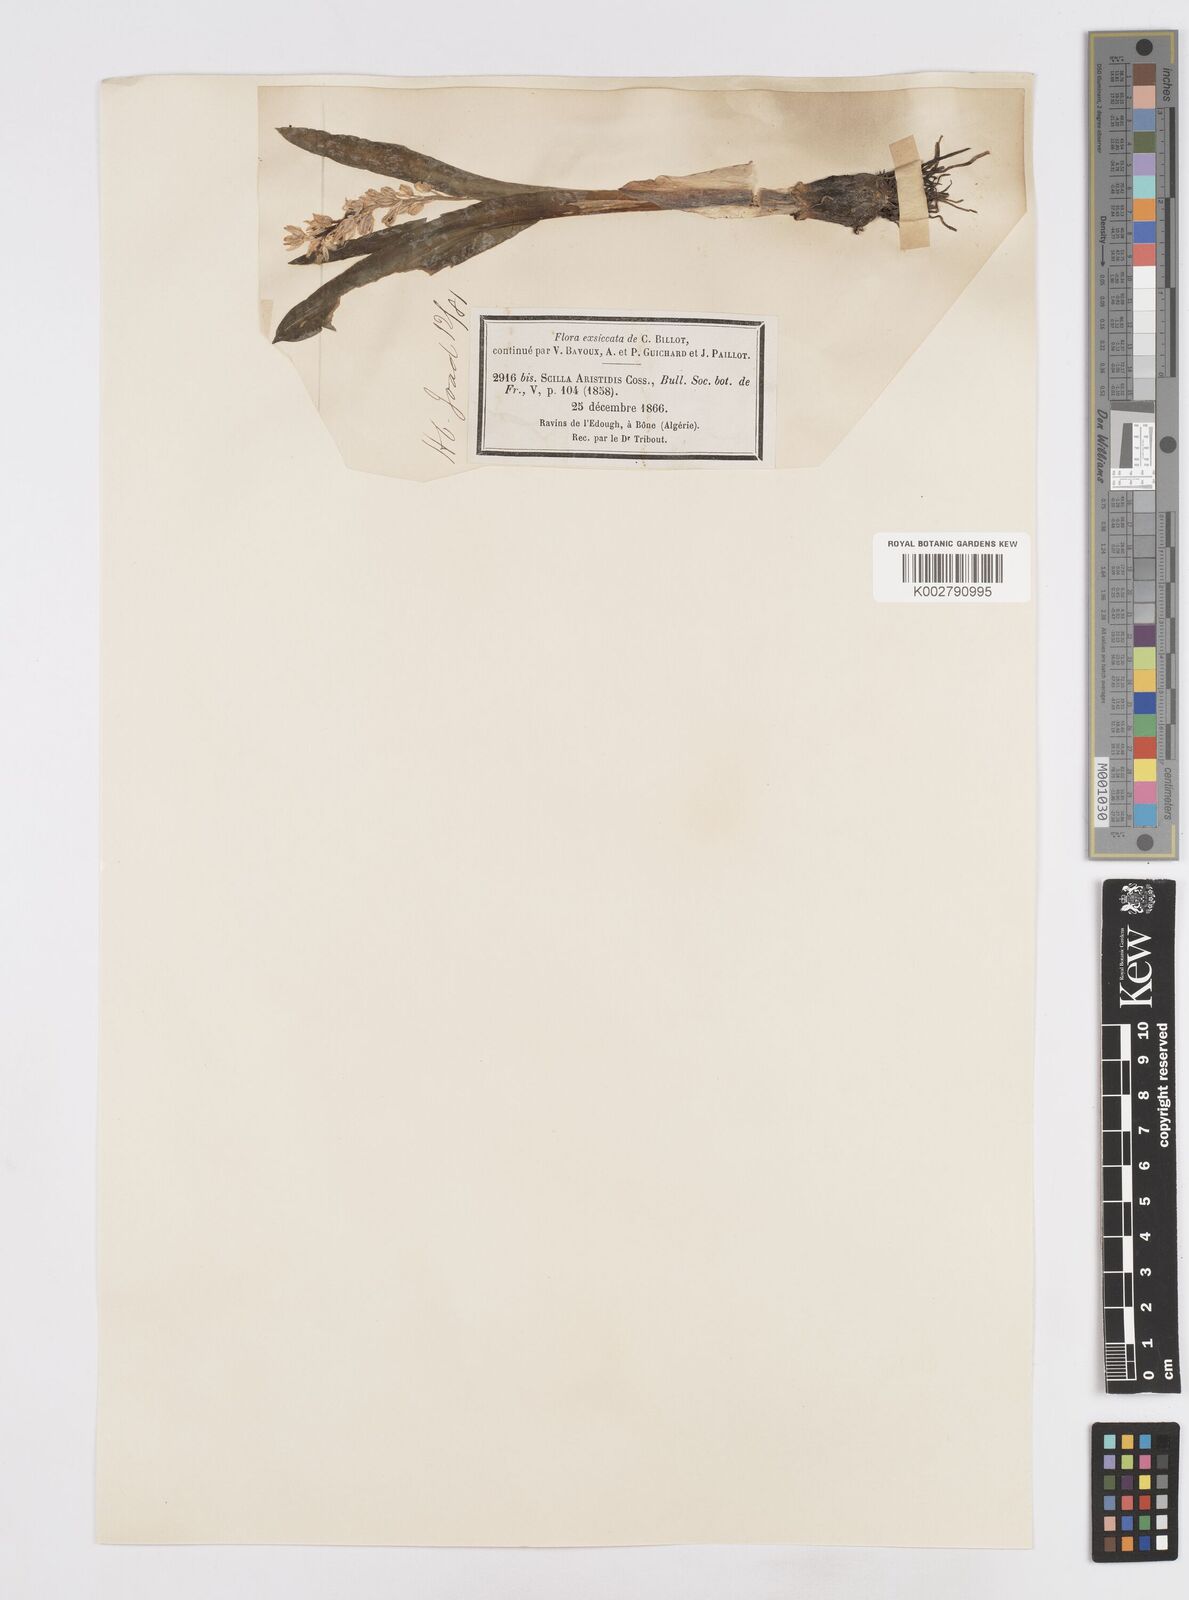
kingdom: Plantae
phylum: Tracheophyta
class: Liliopsida
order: Asparagales
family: Asparagaceae
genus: Hyacinthoides
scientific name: Hyacinthoides aristidis
